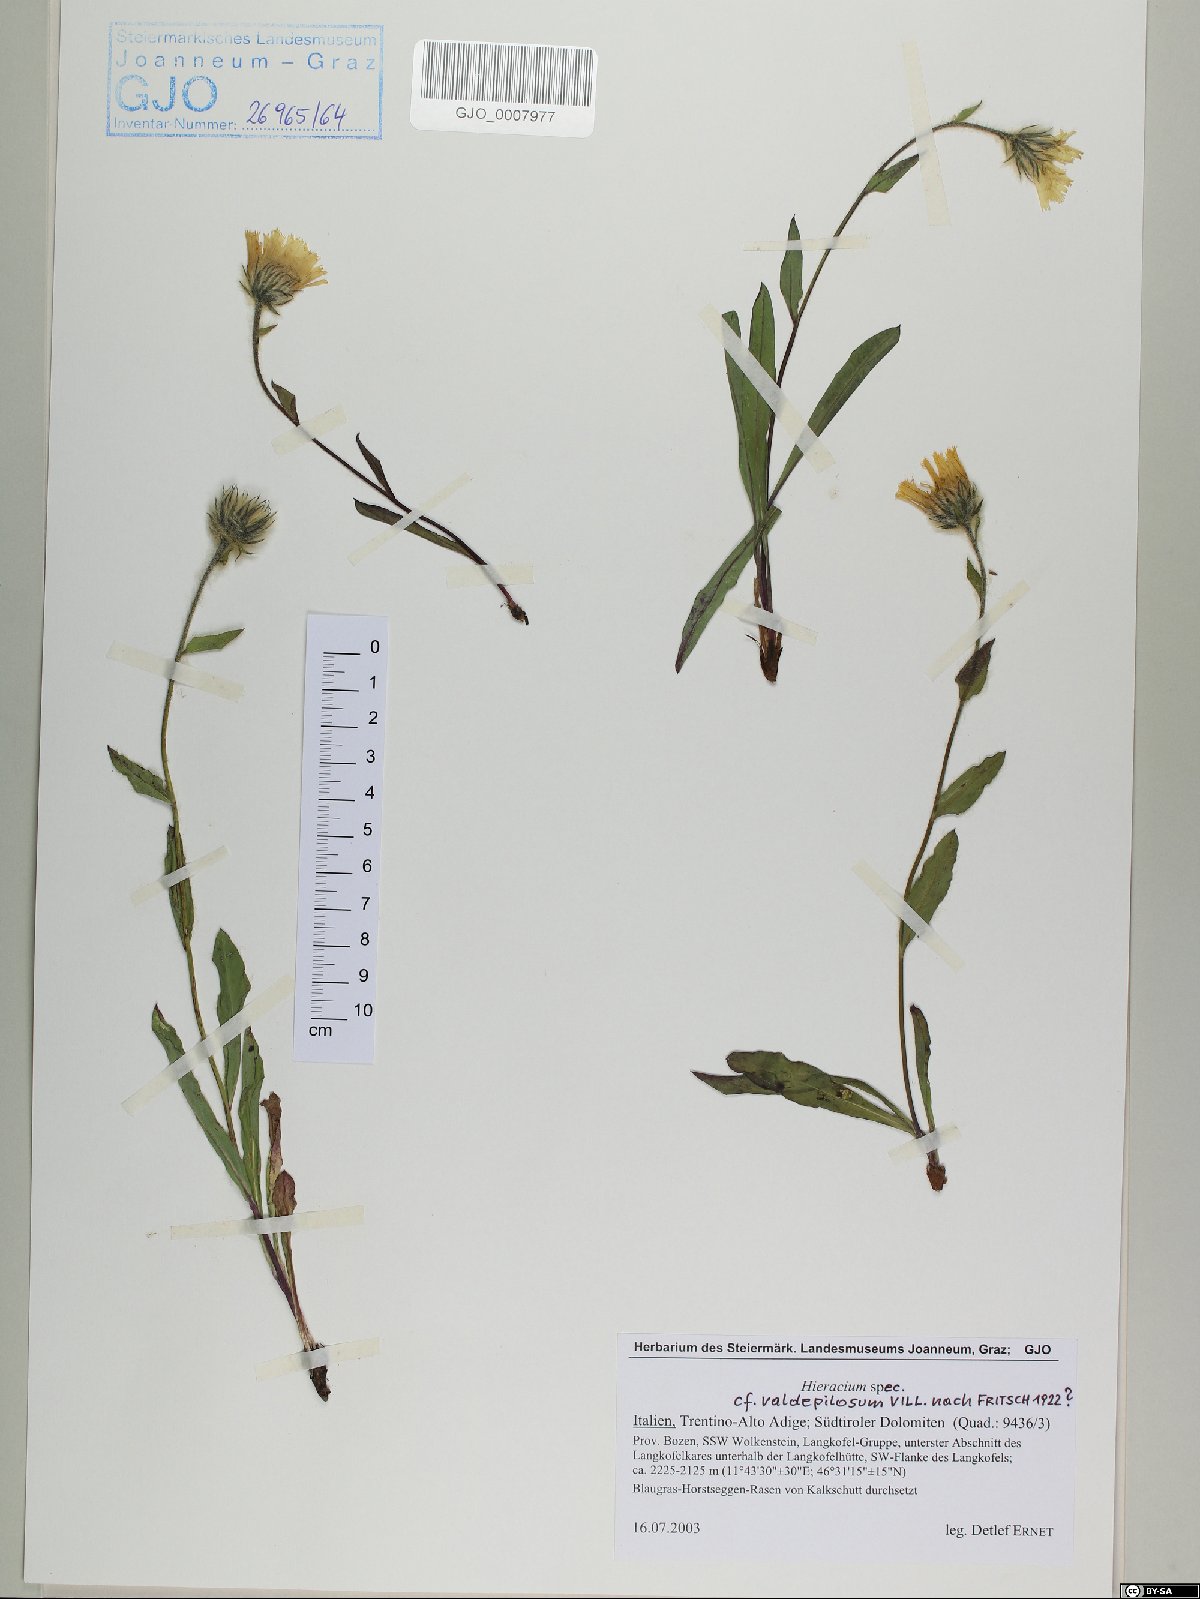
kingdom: Plantae
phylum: Tracheophyta
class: Magnoliopsida
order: Asterales
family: Asteraceae
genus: Hieracium
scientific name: Hieracium valdepilosum
